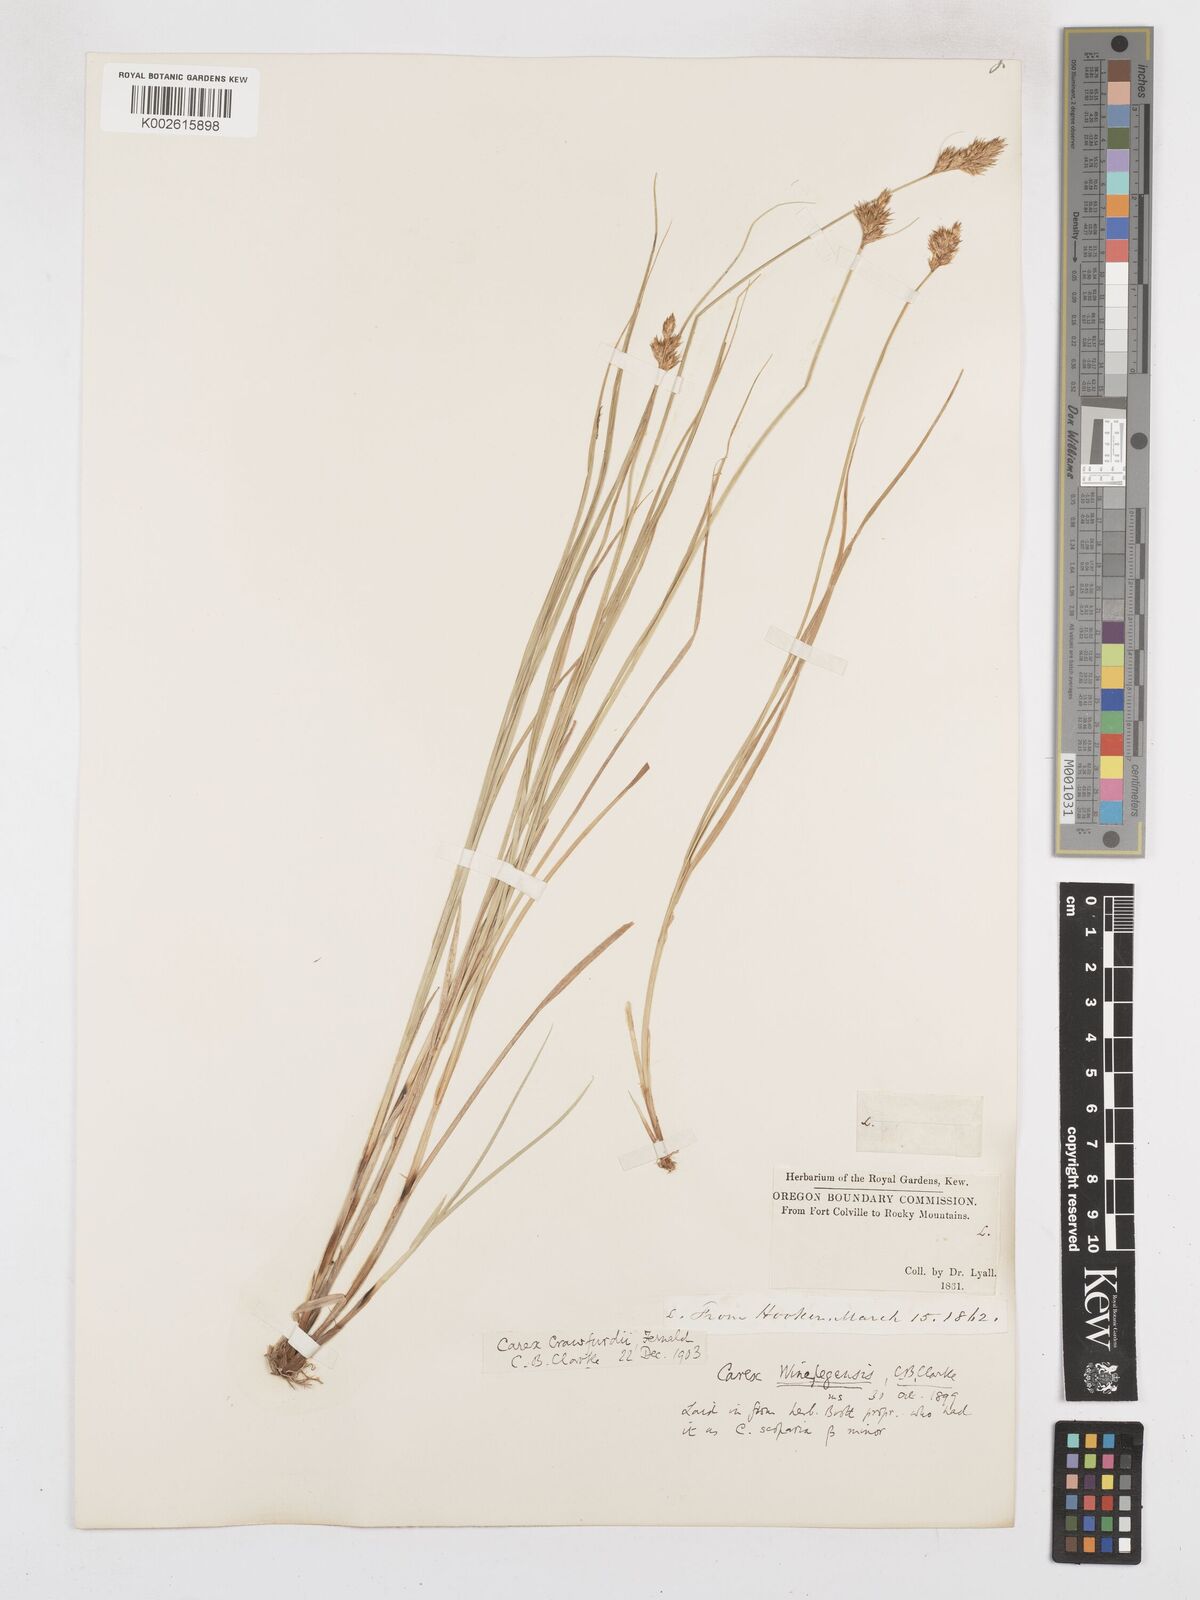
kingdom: Plantae
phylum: Tracheophyta
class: Liliopsida
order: Poales
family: Cyperaceae
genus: Carex
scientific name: Carex crawfordii
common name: Crawford's sedge
